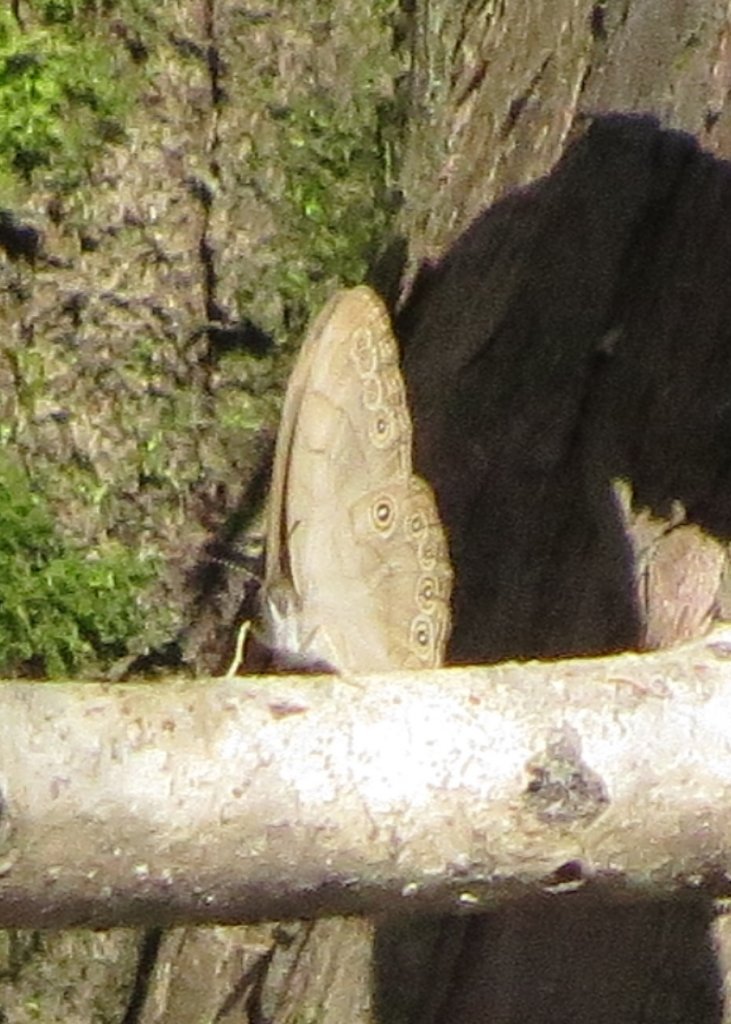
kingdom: Animalia
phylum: Arthropoda
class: Insecta
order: Lepidoptera
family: Nymphalidae
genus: Lethe
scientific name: Lethe eurydice
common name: Appalachian Eyed Brown
